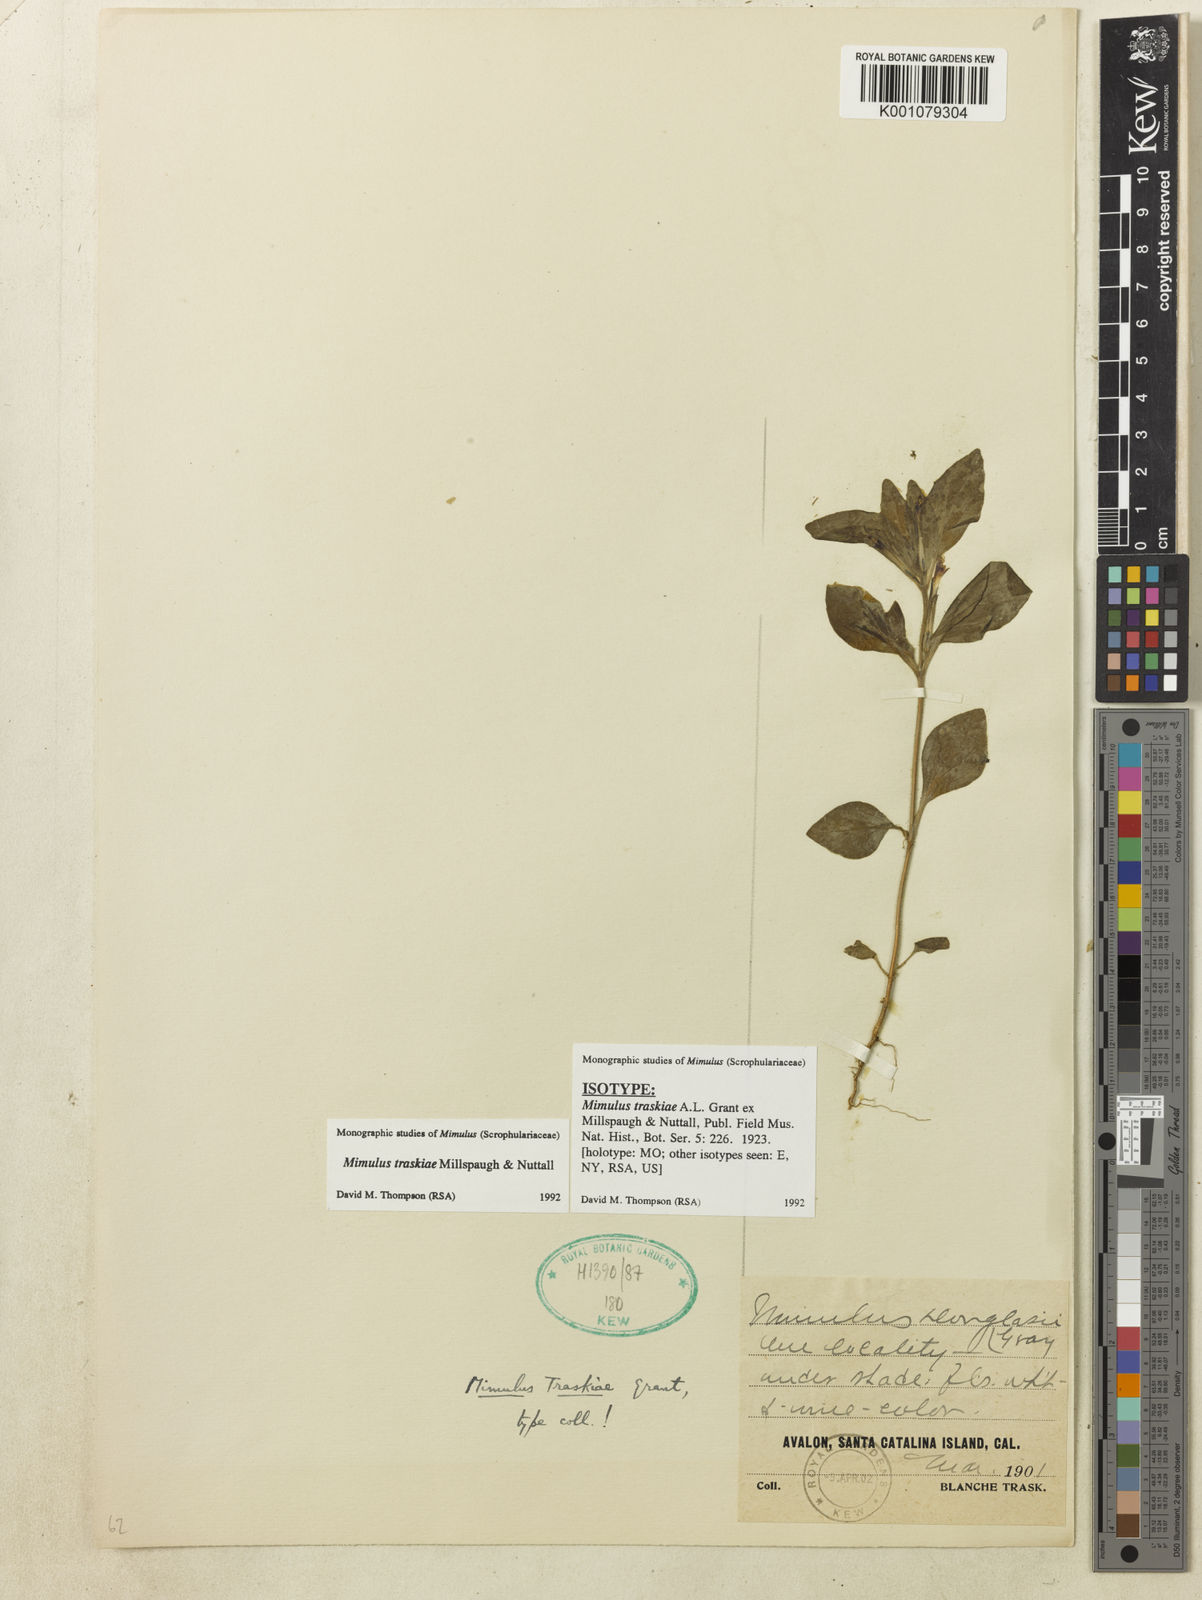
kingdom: Plantae
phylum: Tracheophyta
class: Magnoliopsida
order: Lamiales
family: Phrymaceae
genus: Mimulus
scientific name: Mimulus
